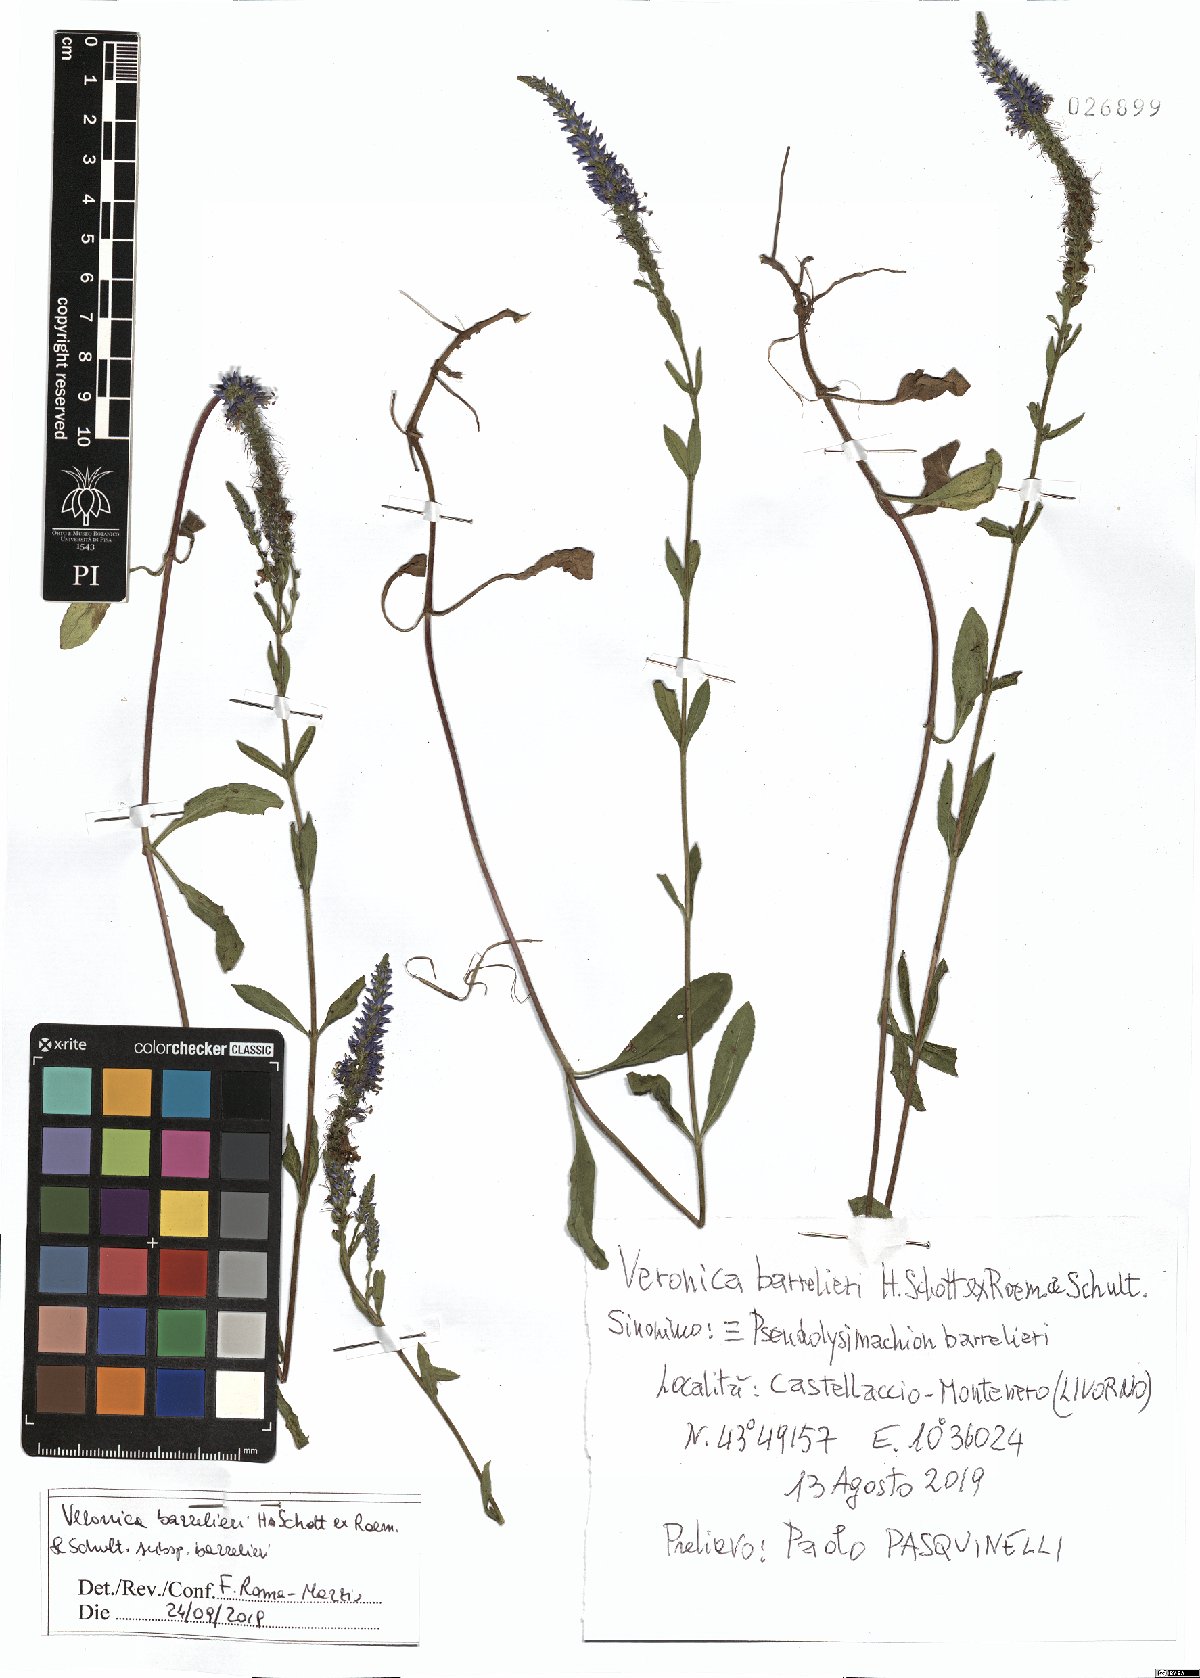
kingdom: Plantae
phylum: Tracheophyta
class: Magnoliopsida
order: Lamiales
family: Plantaginaceae
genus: Veronica
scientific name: Veronica barrelieri
